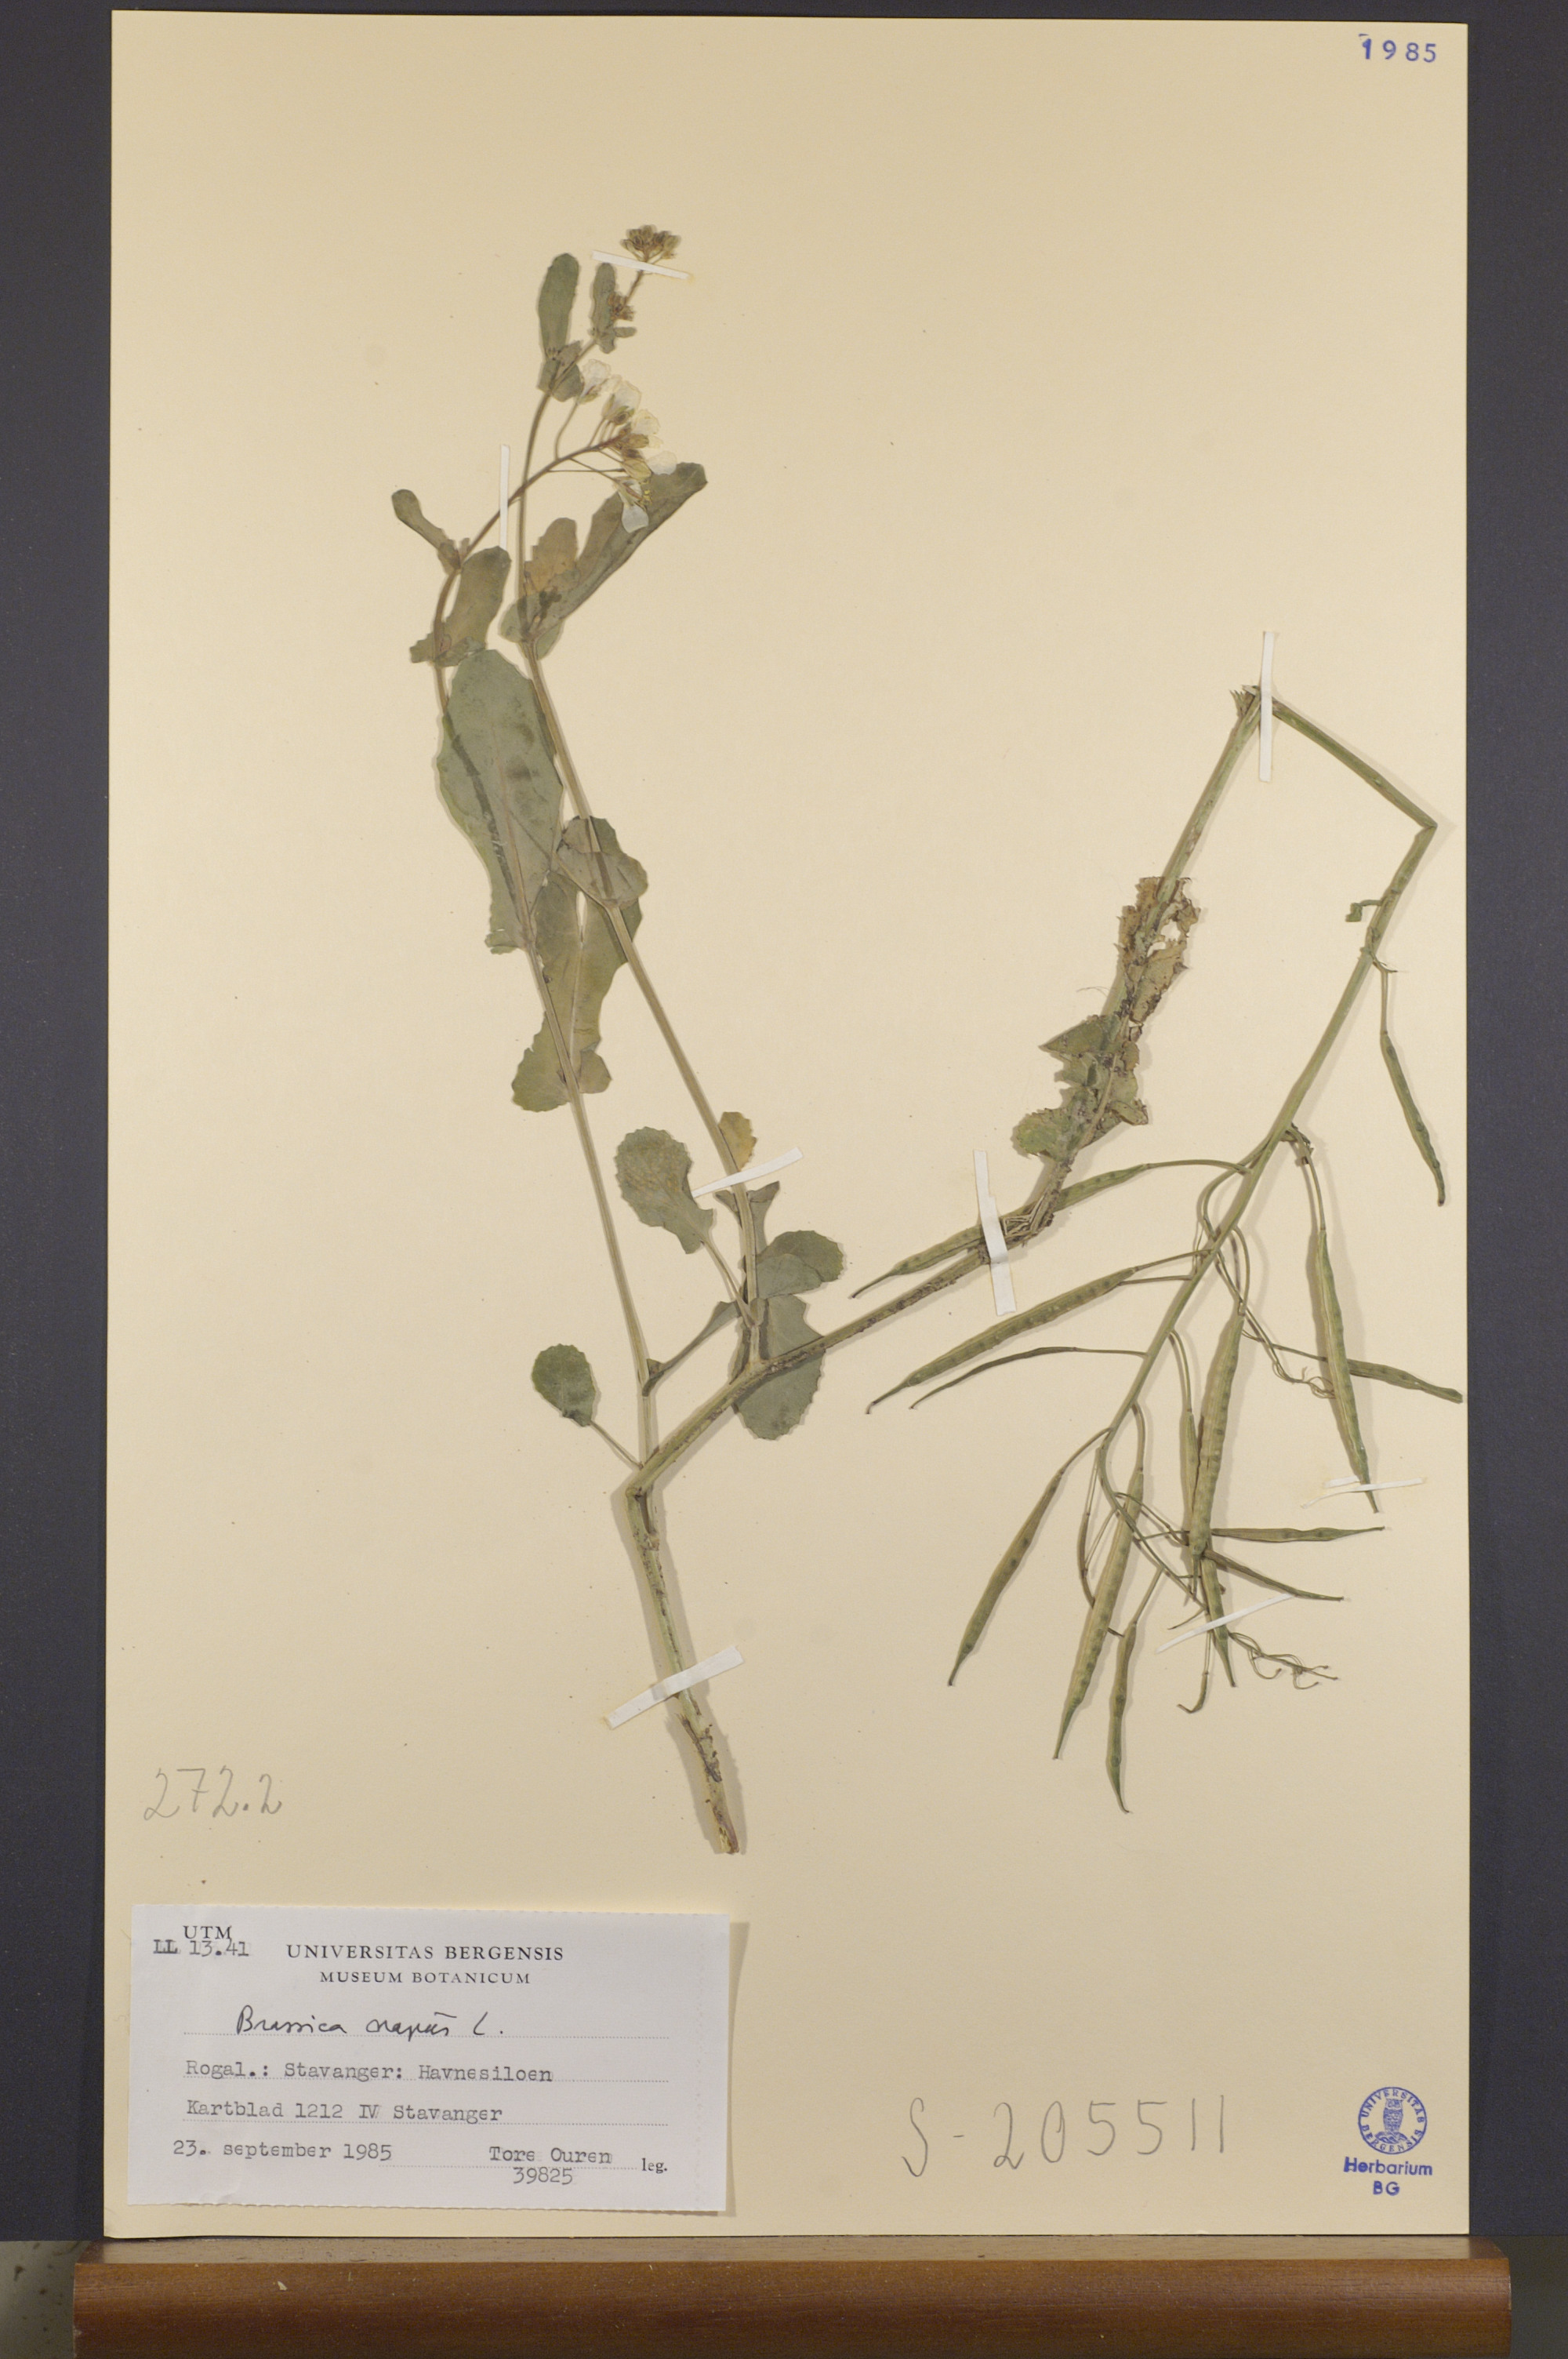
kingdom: Plantae
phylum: Tracheophyta
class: Magnoliopsida
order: Brassicales
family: Brassicaceae
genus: Brassica
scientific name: Brassica napus
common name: Rape
